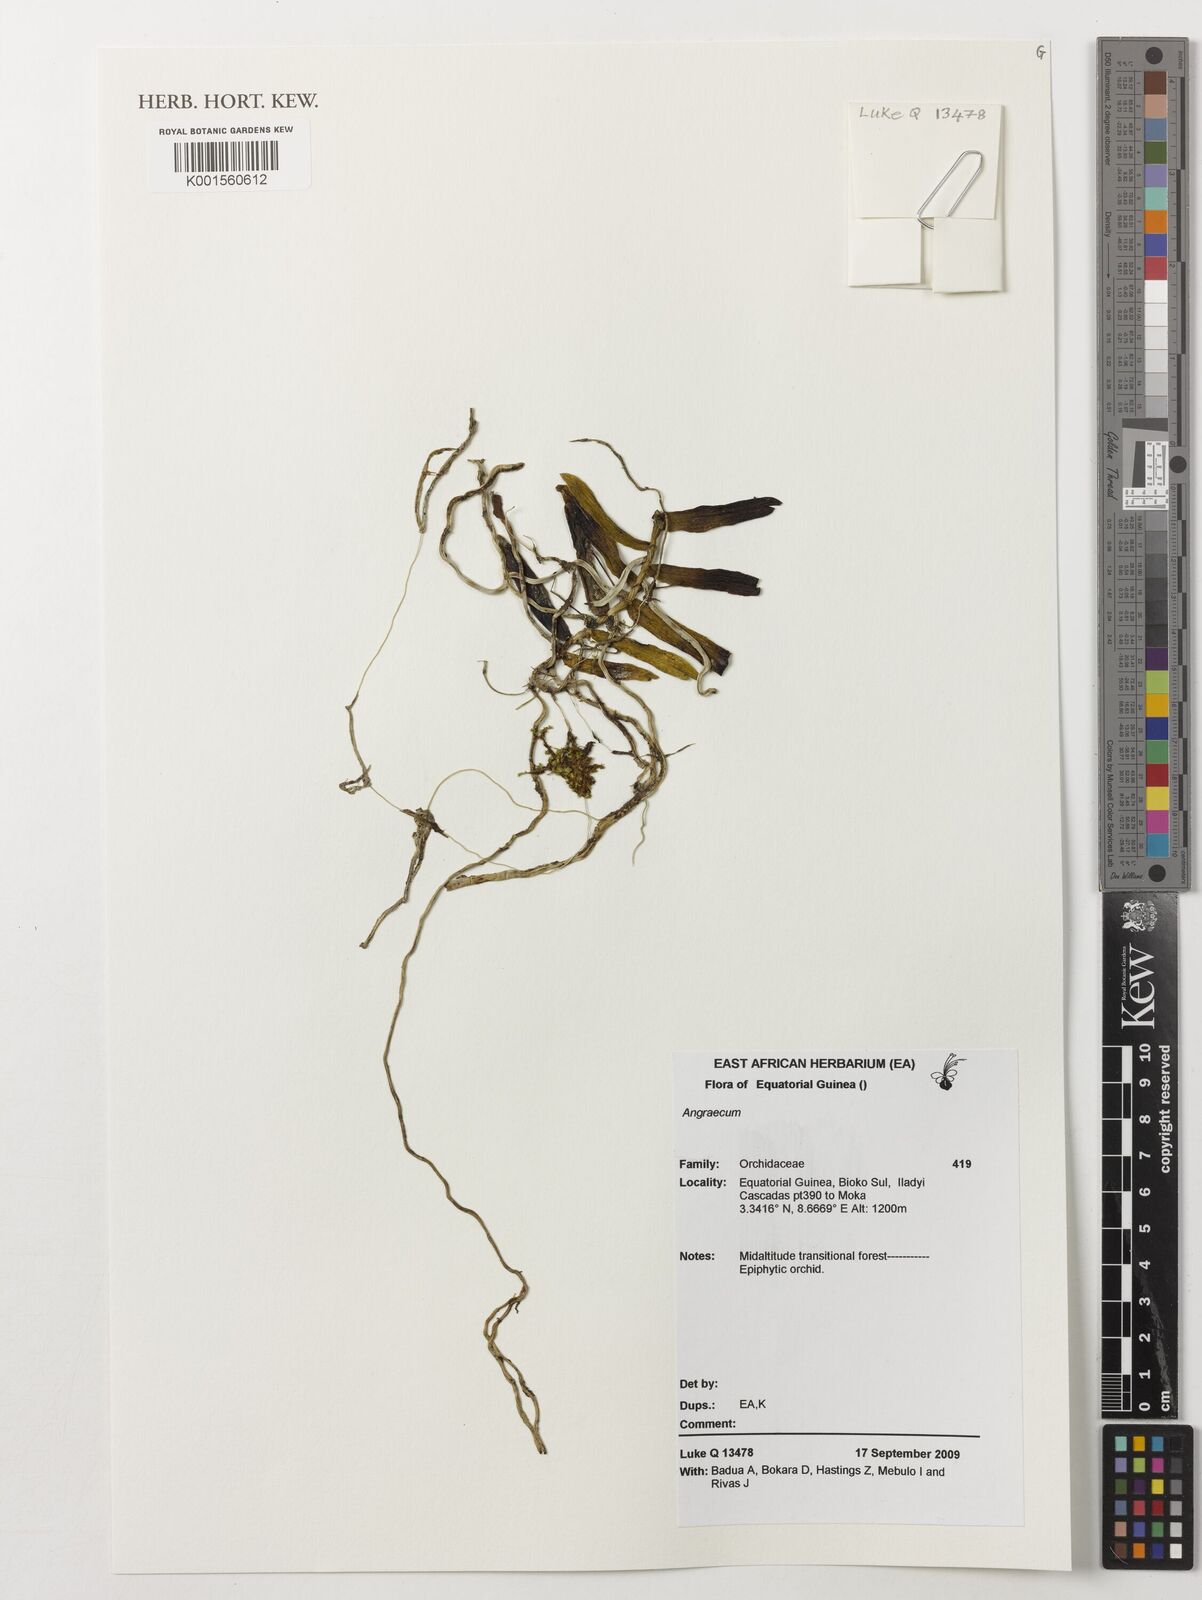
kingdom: Plantae
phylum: Tracheophyta
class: Liliopsida
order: Asparagales
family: Orchidaceae
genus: Angraecum
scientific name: Angraecum
